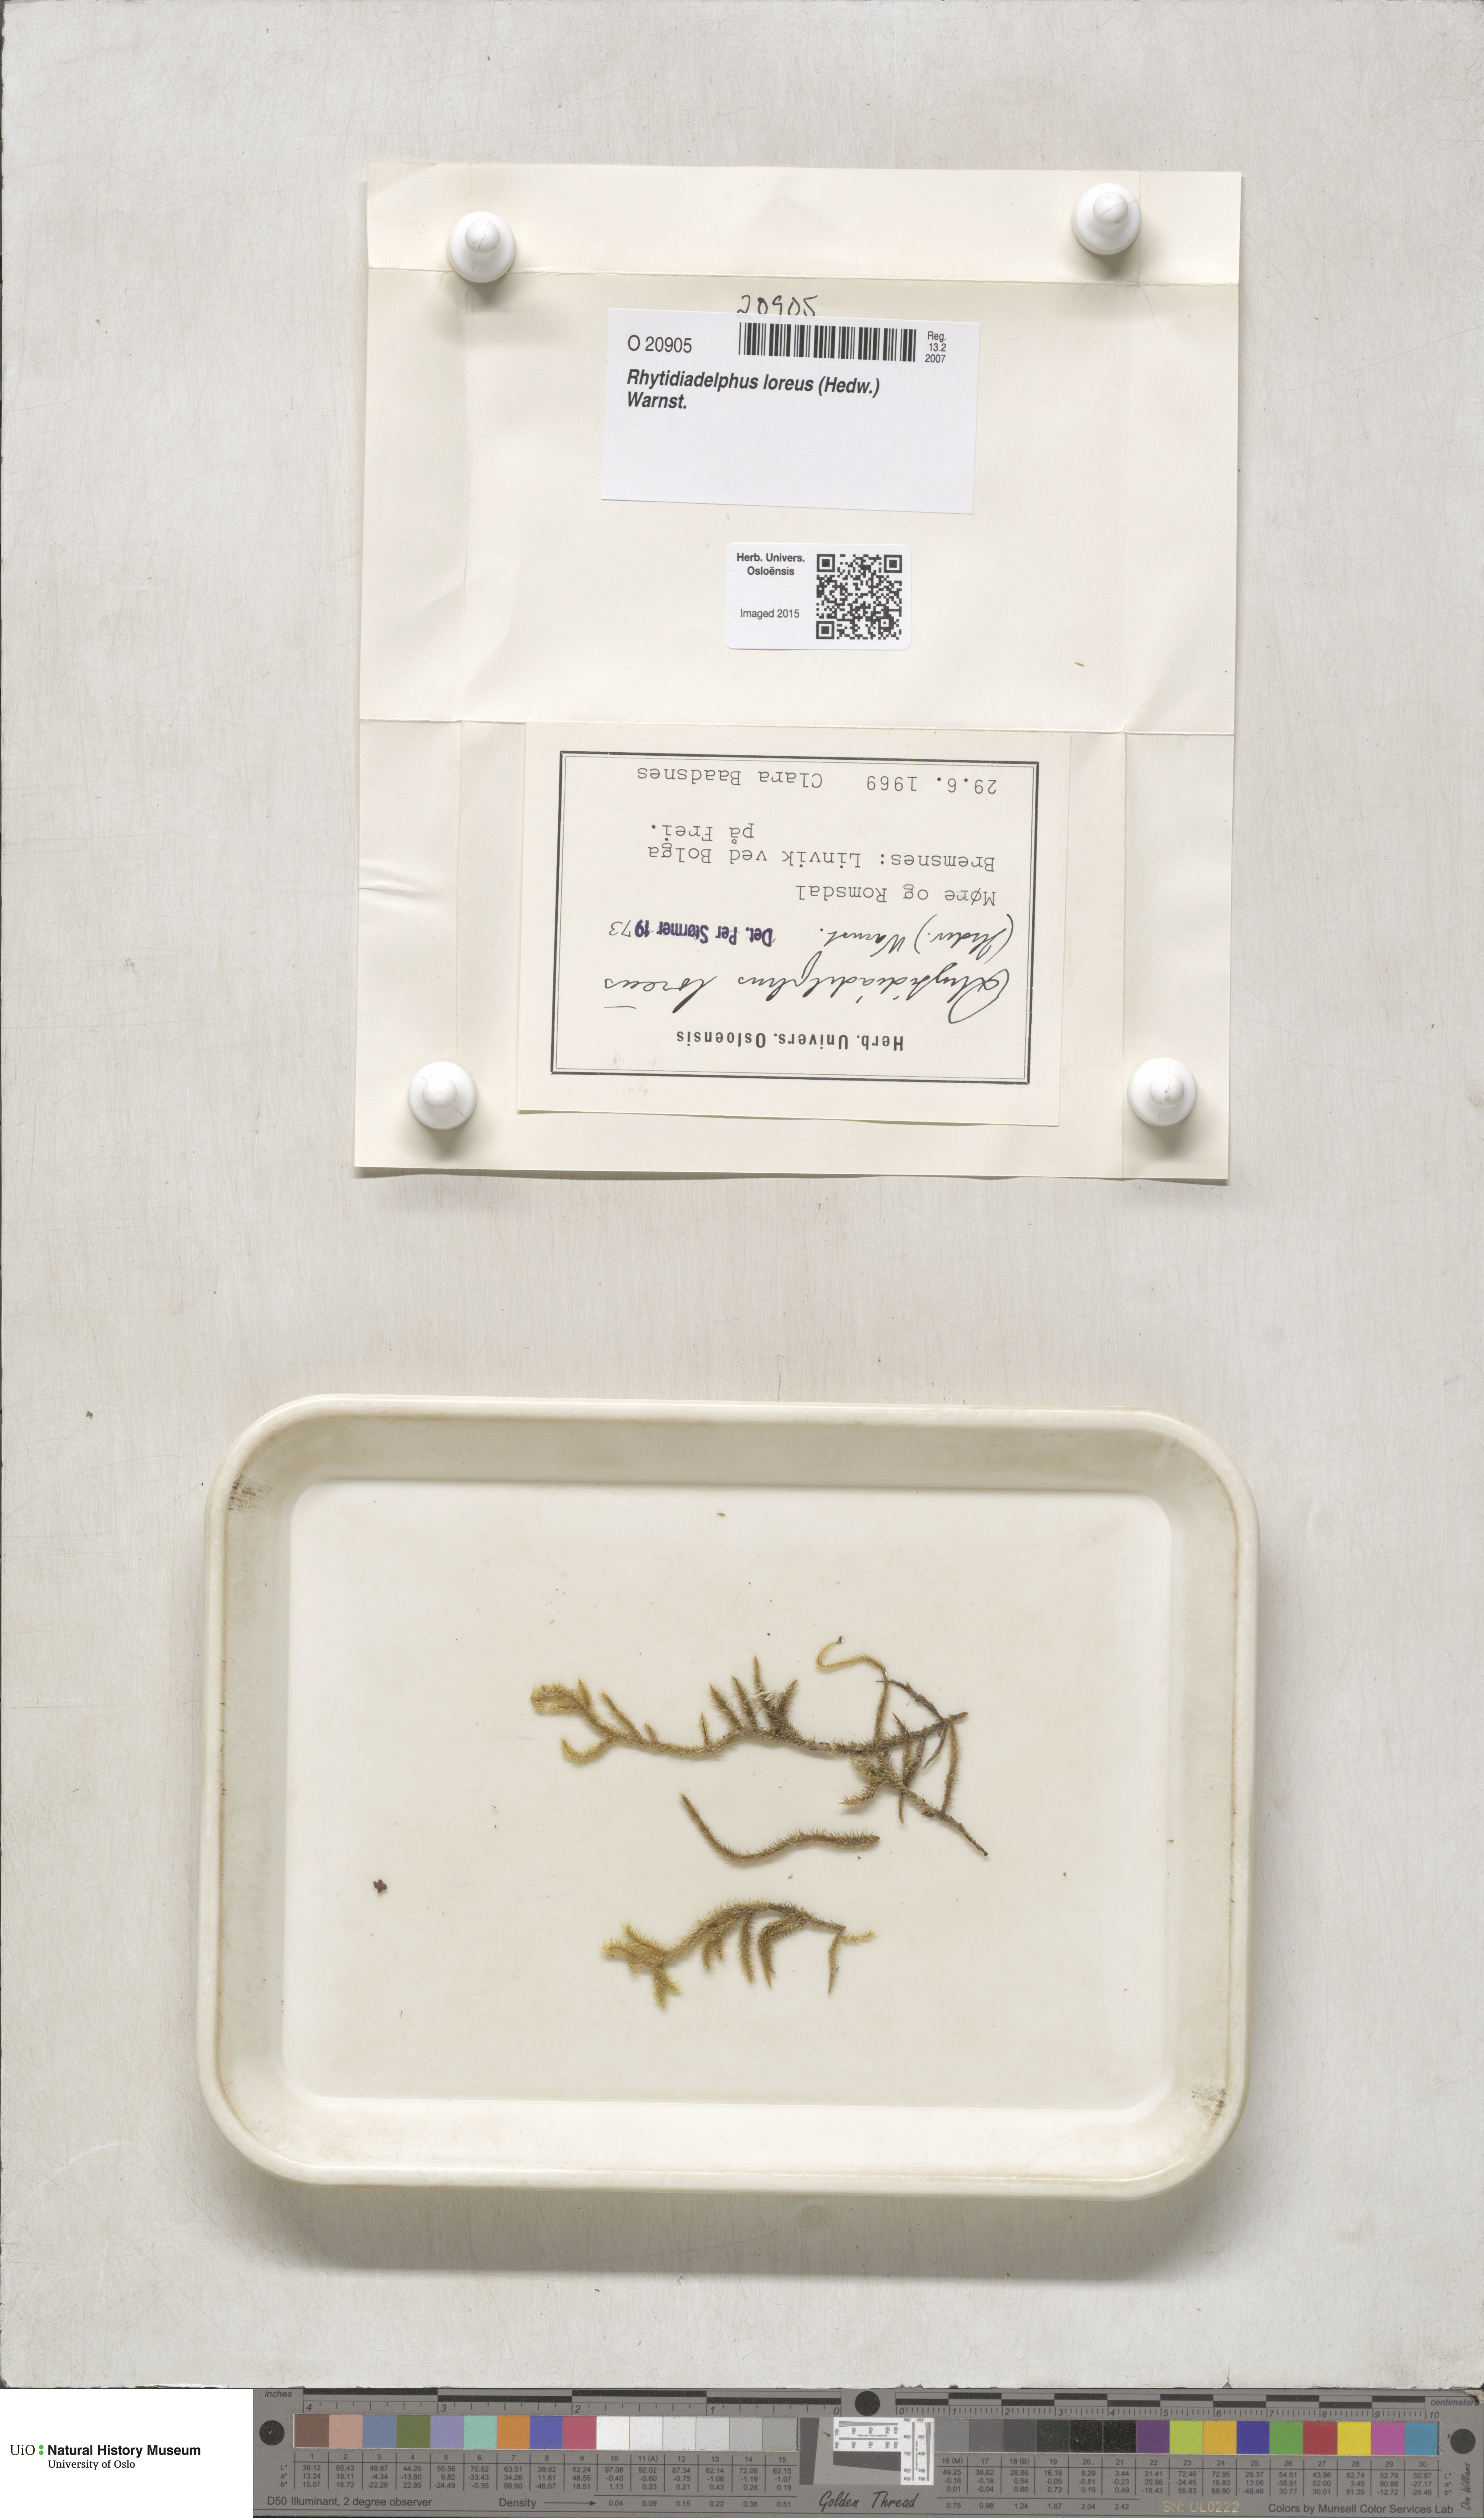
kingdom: Plantae
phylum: Bryophyta
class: Bryopsida
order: Hypnales
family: Hylocomiaceae
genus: Rhytidiadelphus
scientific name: Rhytidiadelphus loreus
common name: Lanky moss
